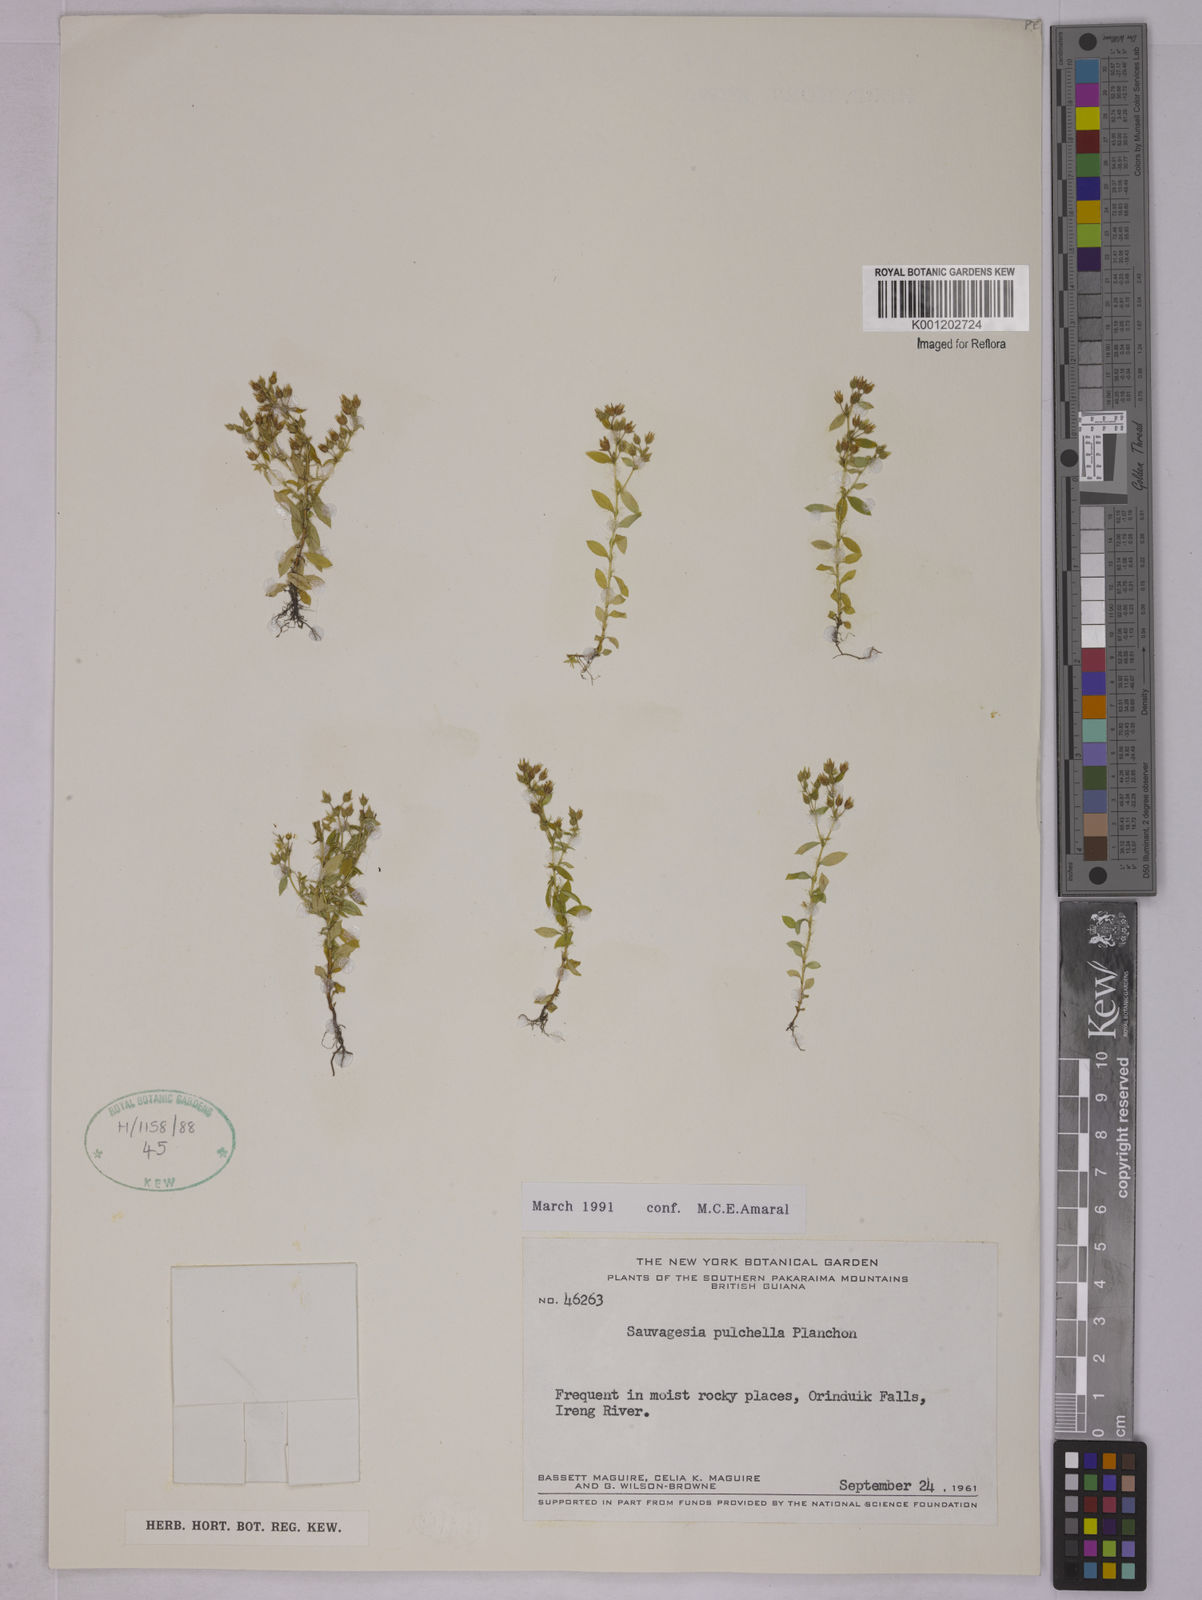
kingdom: Plantae
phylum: Tracheophyta
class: Magnoliopsida
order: Malpighiales
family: Ochnaceae
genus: Sauvagesia
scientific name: Sauvagesia
